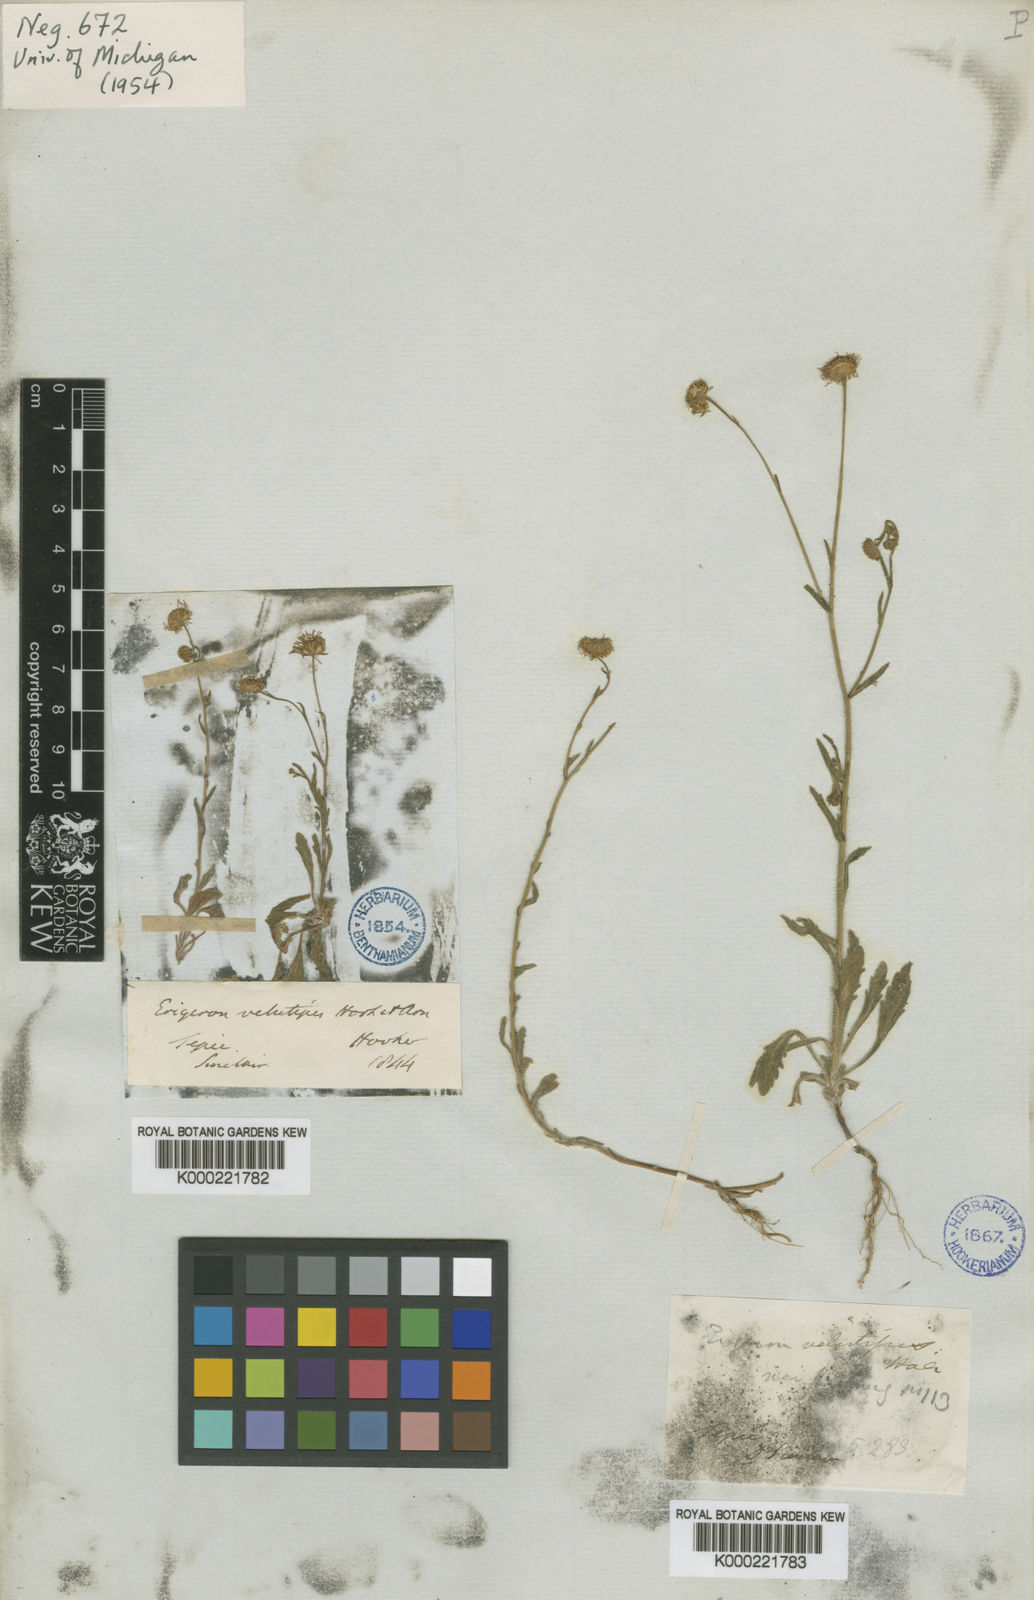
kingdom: Plantae
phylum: Tracheophyta
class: Magnoliopsida
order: Asterales
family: Asteraceae
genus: Erigeron
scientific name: Erigeron velutipes
